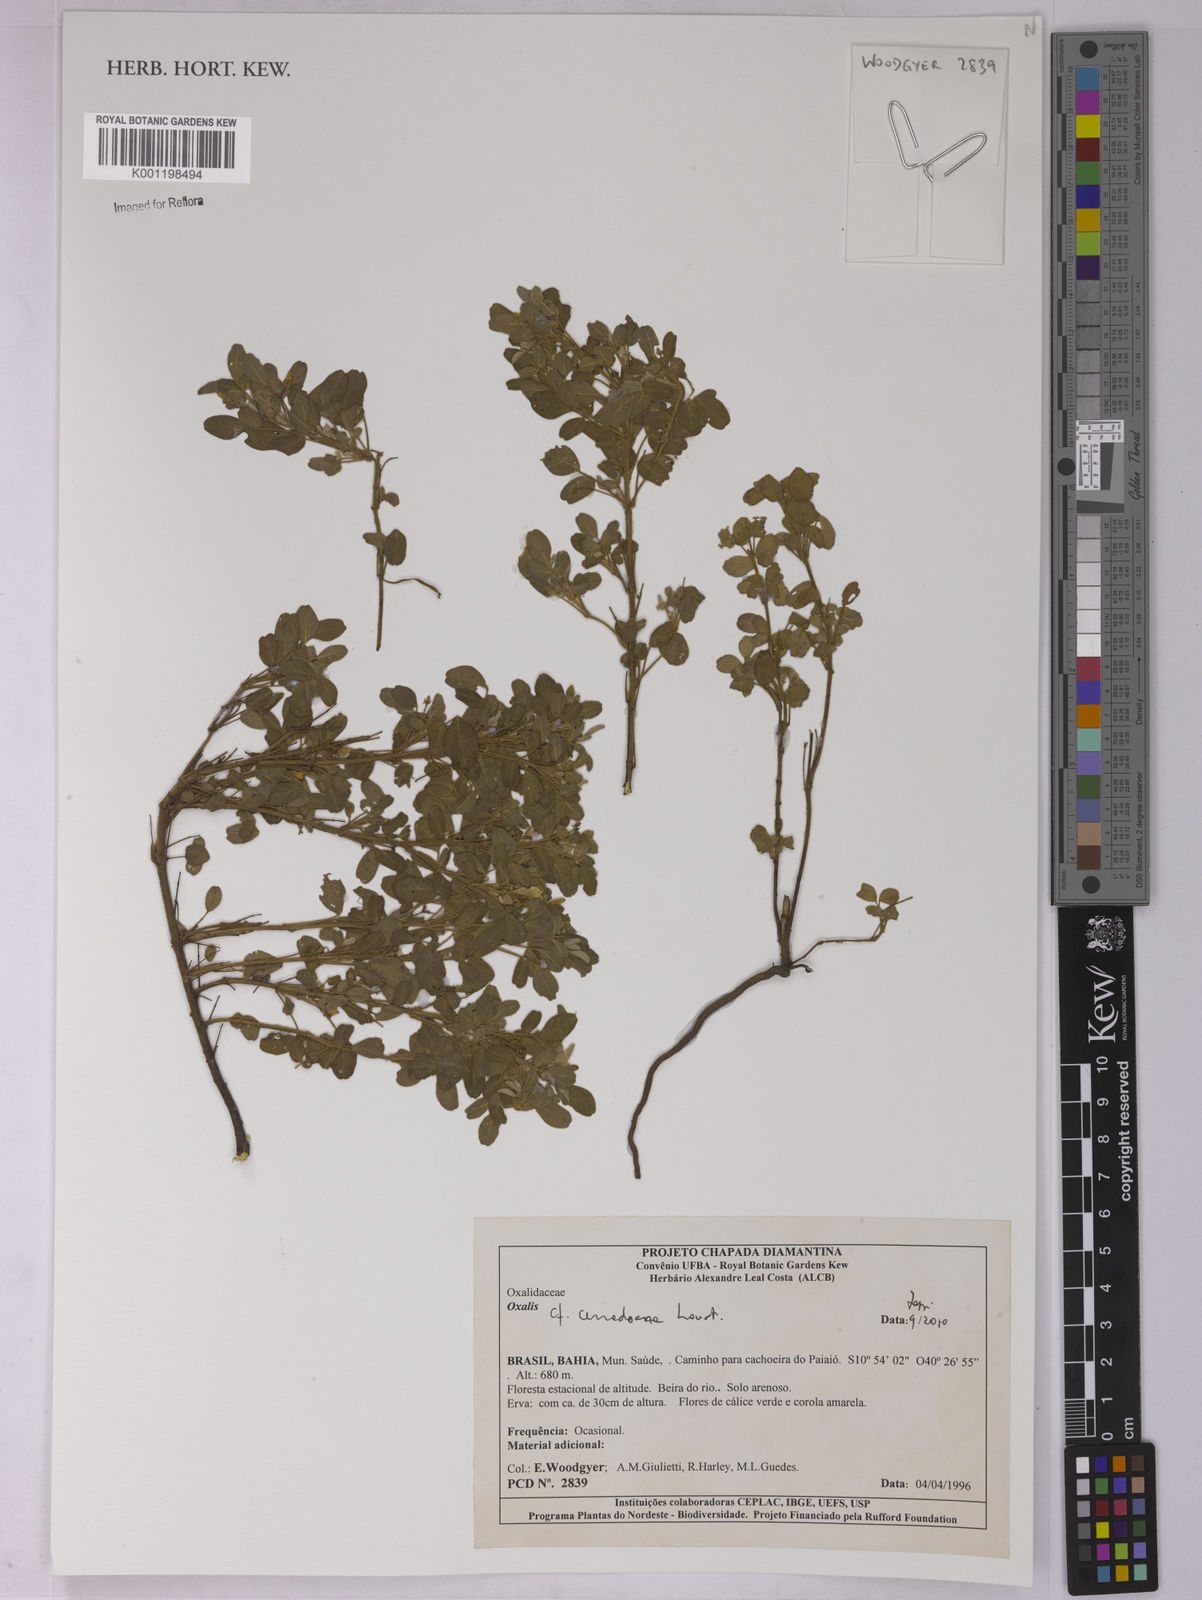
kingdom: Plantae
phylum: Tracheophyta
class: Magnoliopsida
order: Oxalidales
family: Oxalidaceae
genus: Oxalis
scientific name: Oxalis cerradoana
